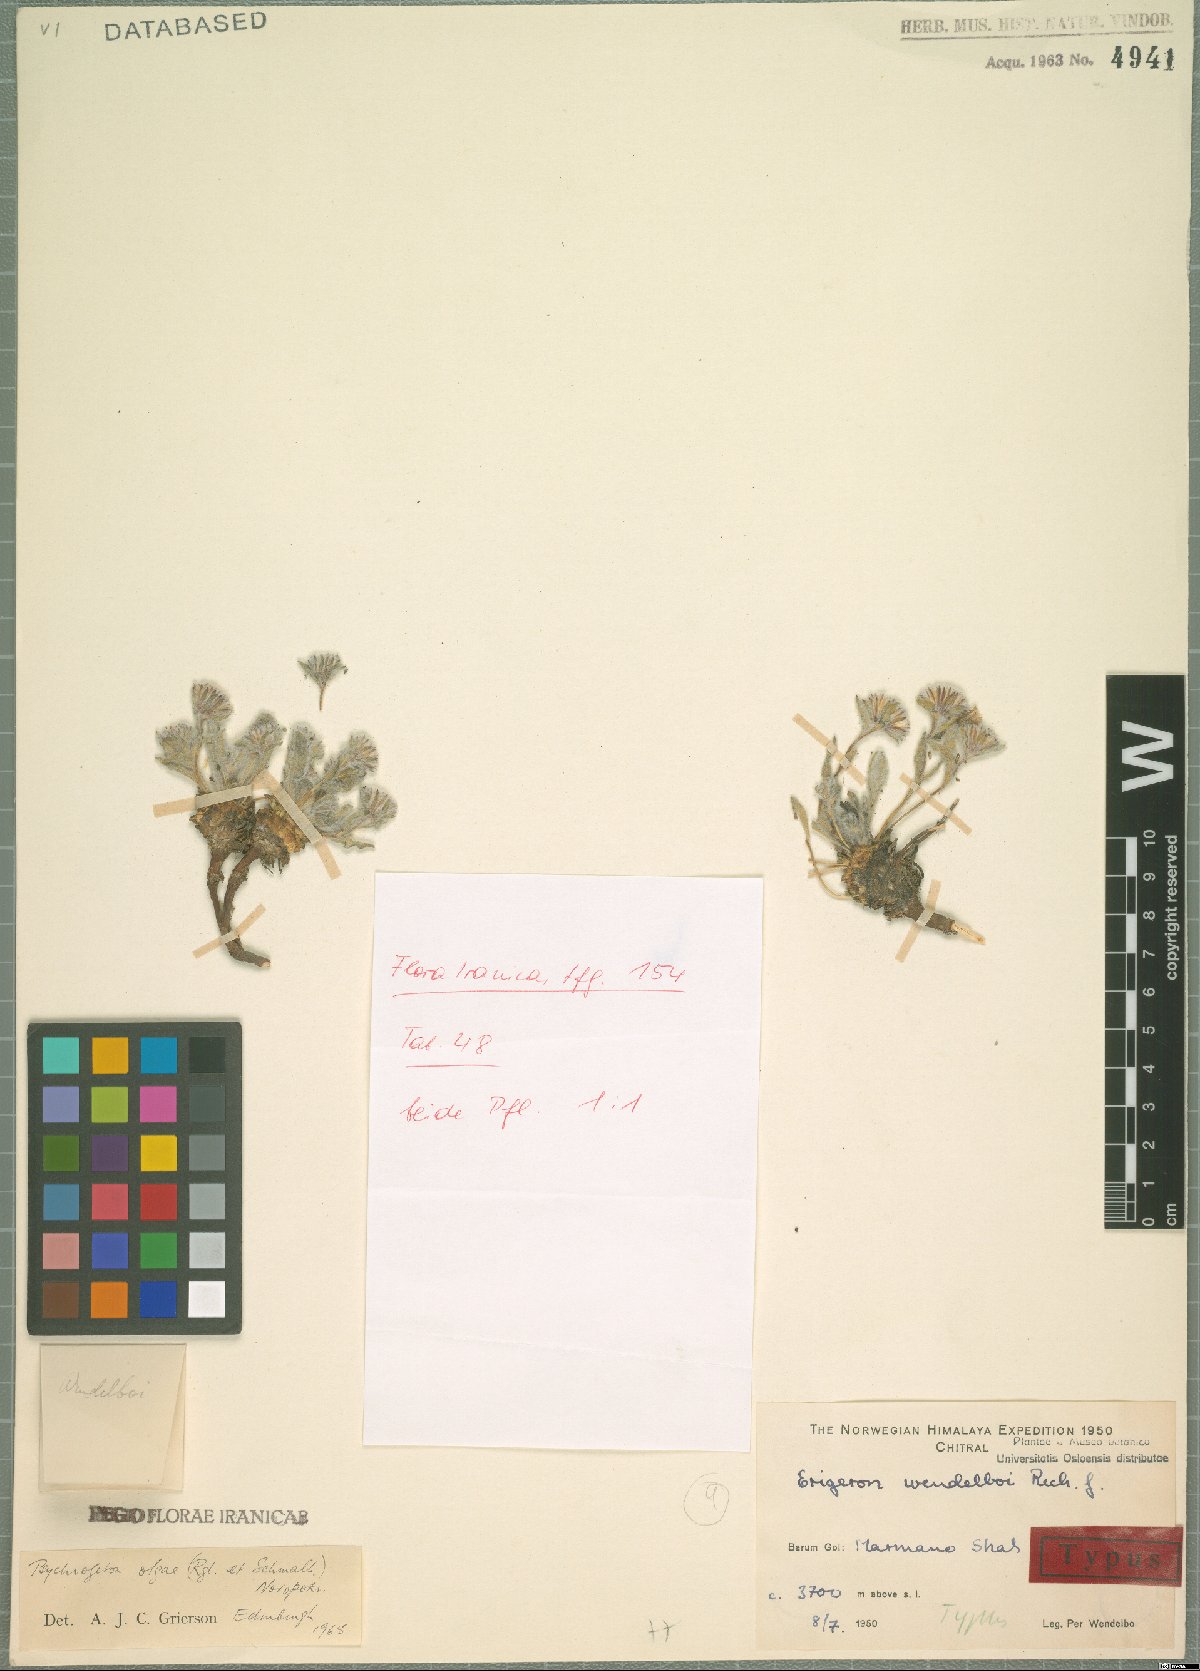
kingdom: Plantae
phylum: Tracheophyta
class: Magnoliopsida
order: Asterales
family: Asteraceae
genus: Psychrogeton
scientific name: Psychrogeton olgae
